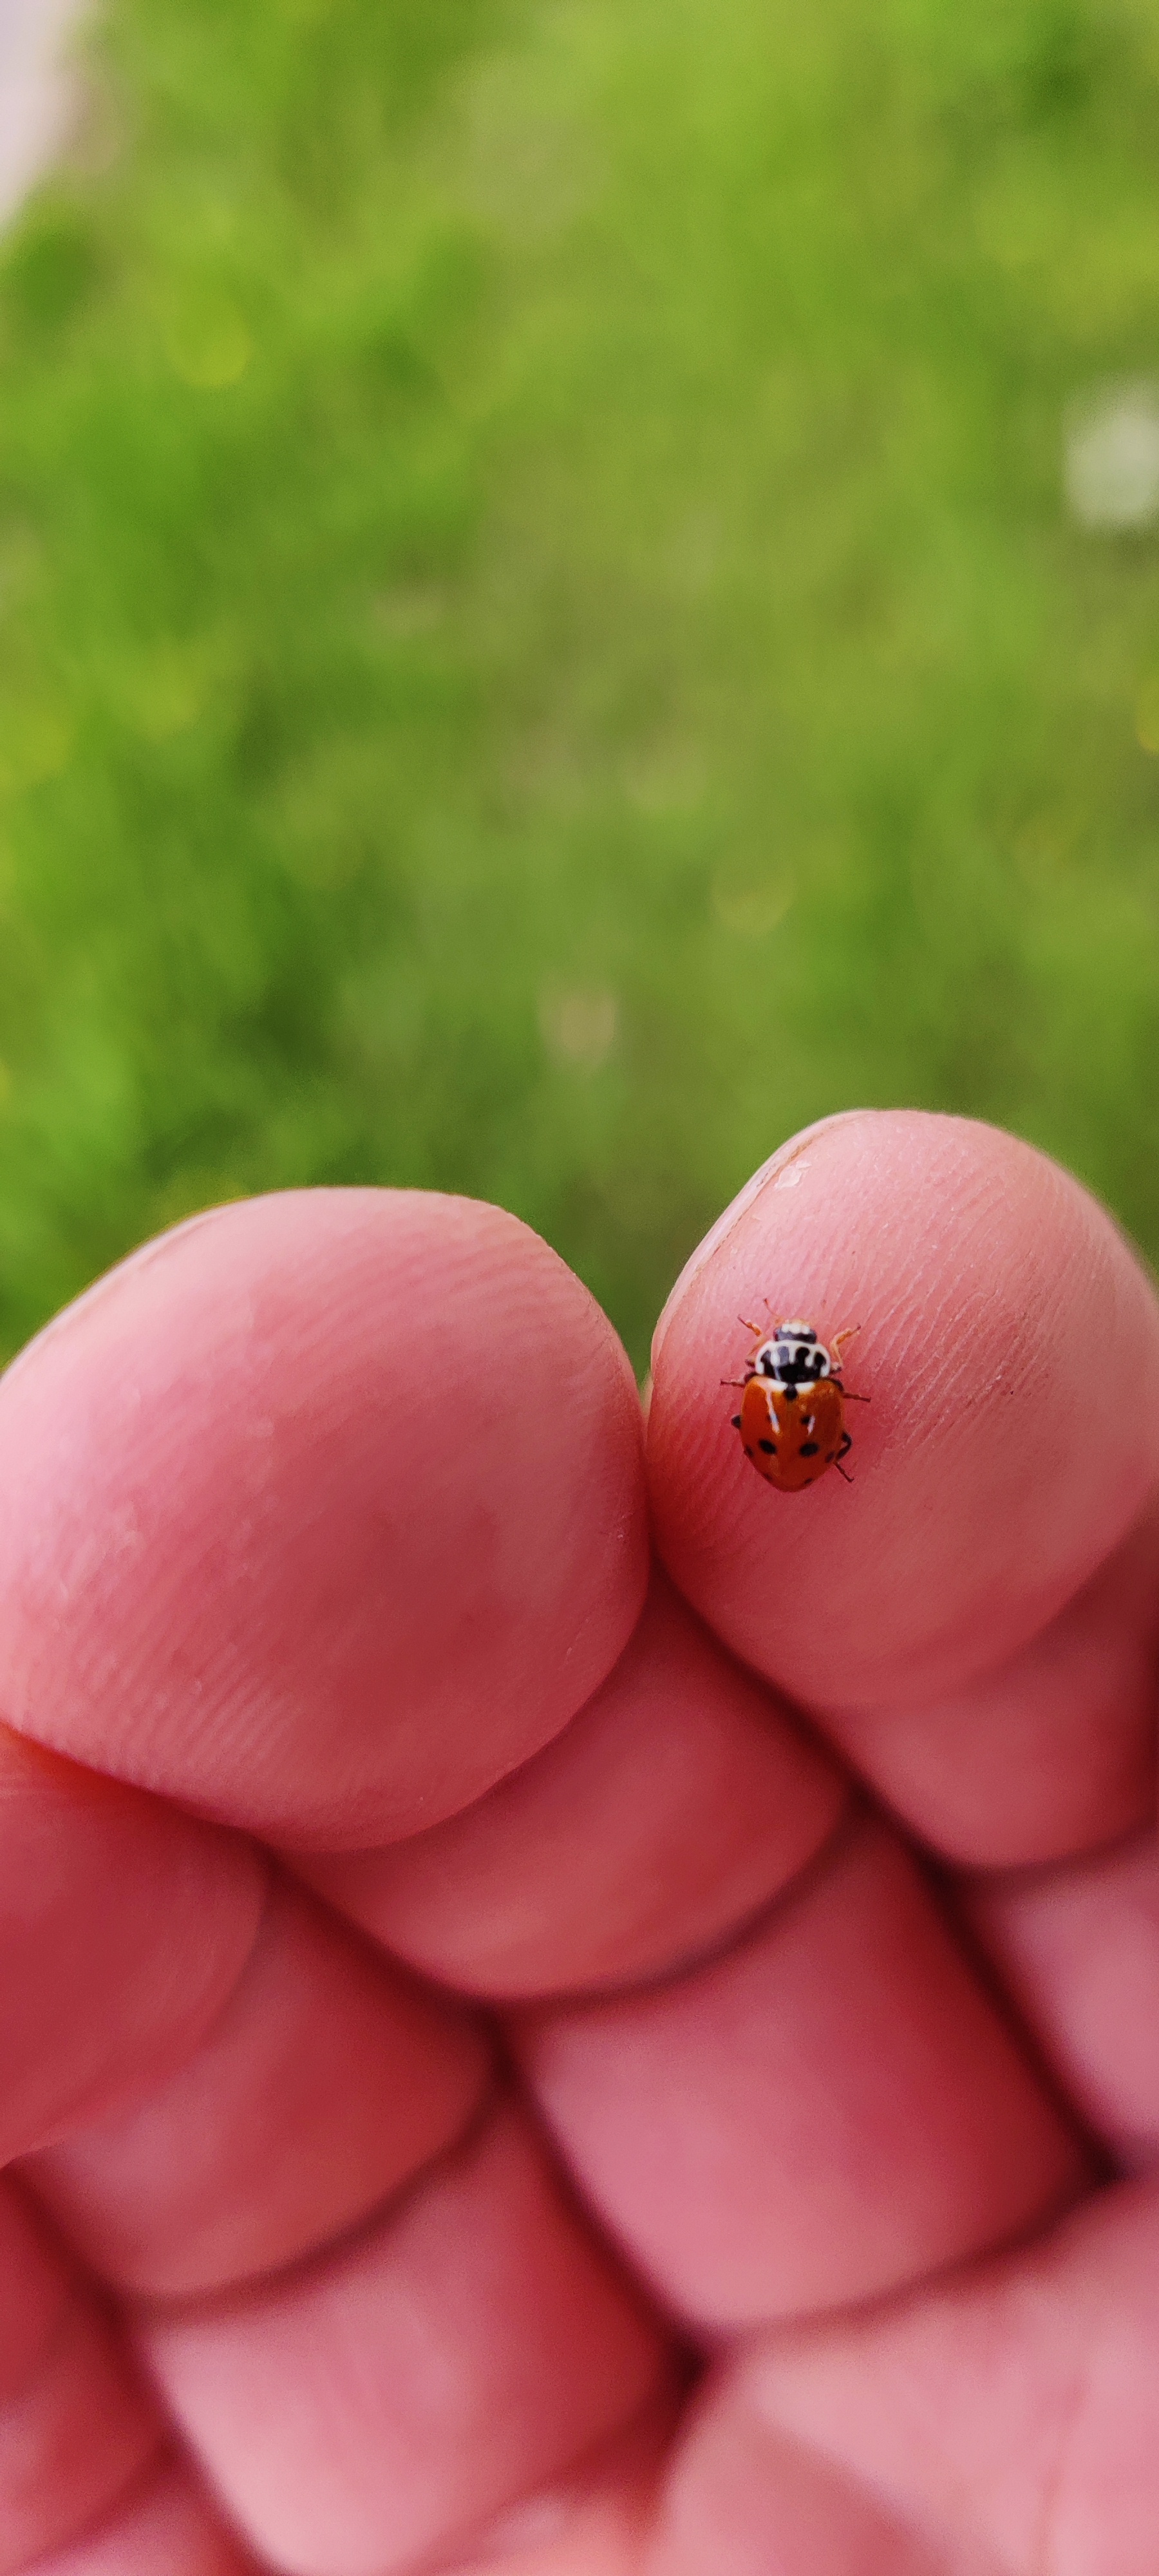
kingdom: Animalia
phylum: Arthropoda
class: Insecta
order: Coleoptera
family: Coccinellidae
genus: Hippodamia
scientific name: Hippodamia variegata
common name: Adonis' mariehøne
